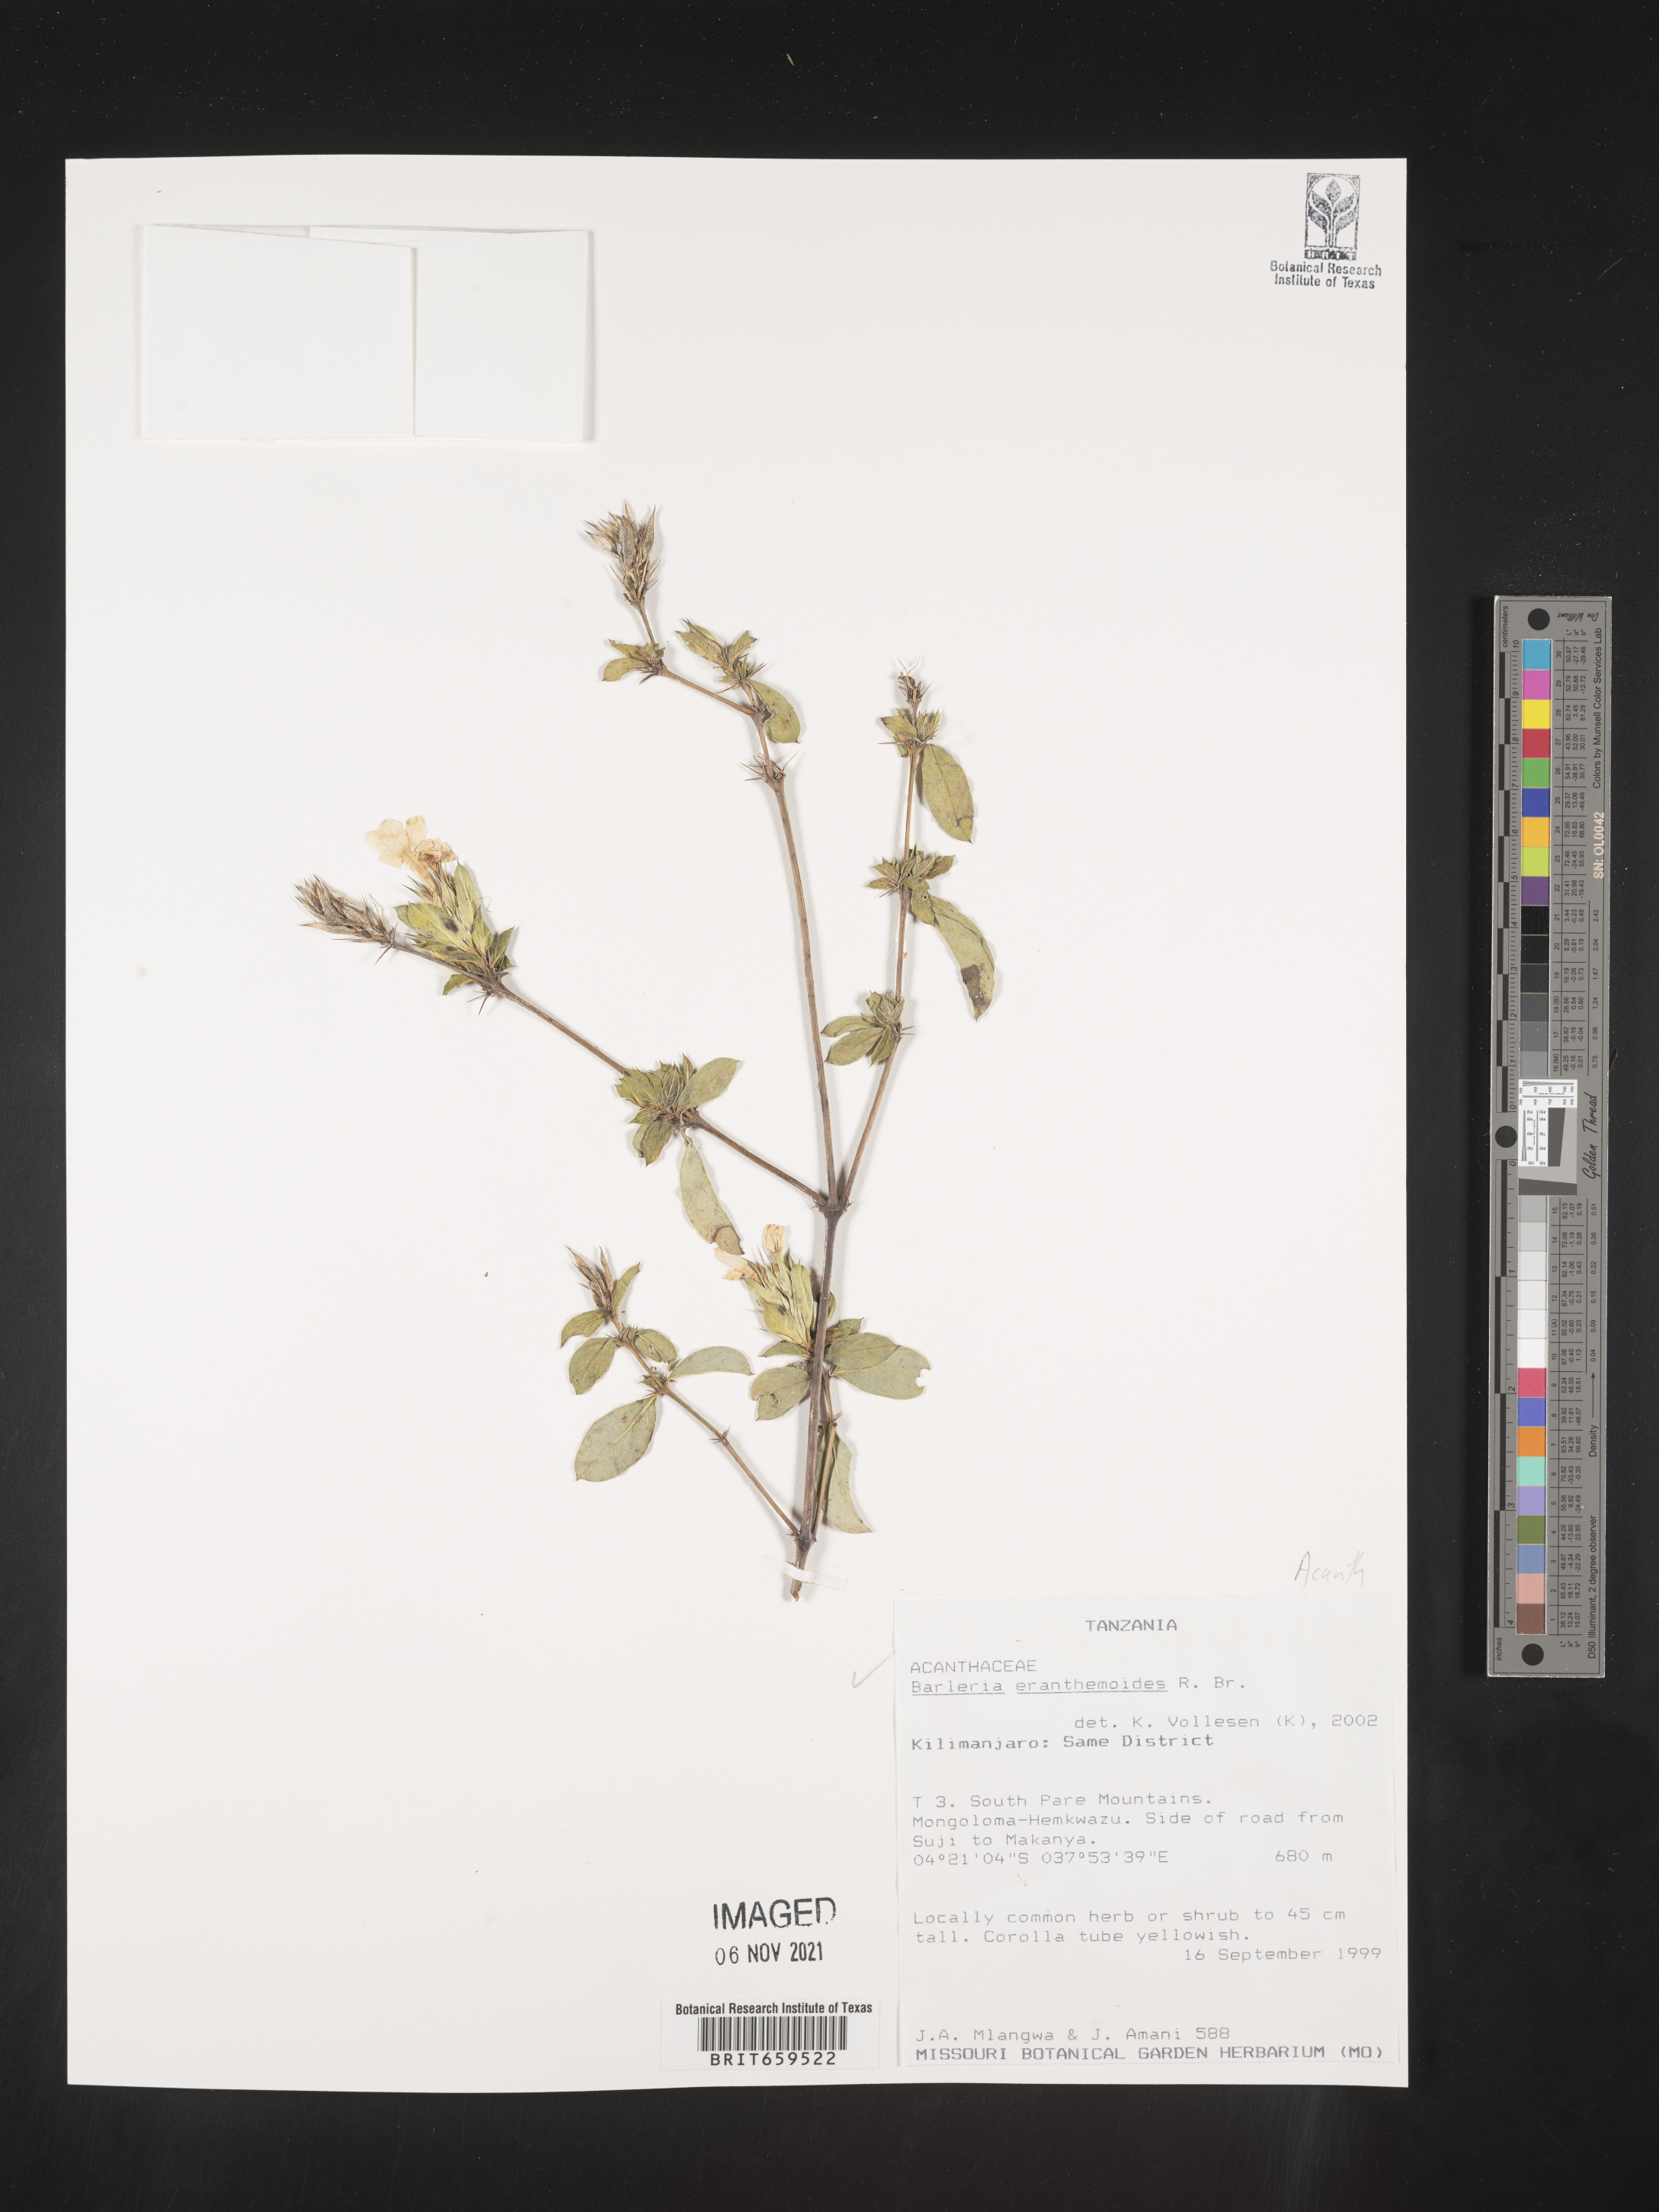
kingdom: Plantae
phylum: Tracheophyta
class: Magnoliopsida
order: Lamiales
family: Acanthaceae
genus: Barleria
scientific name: Barleria eranthemoides
